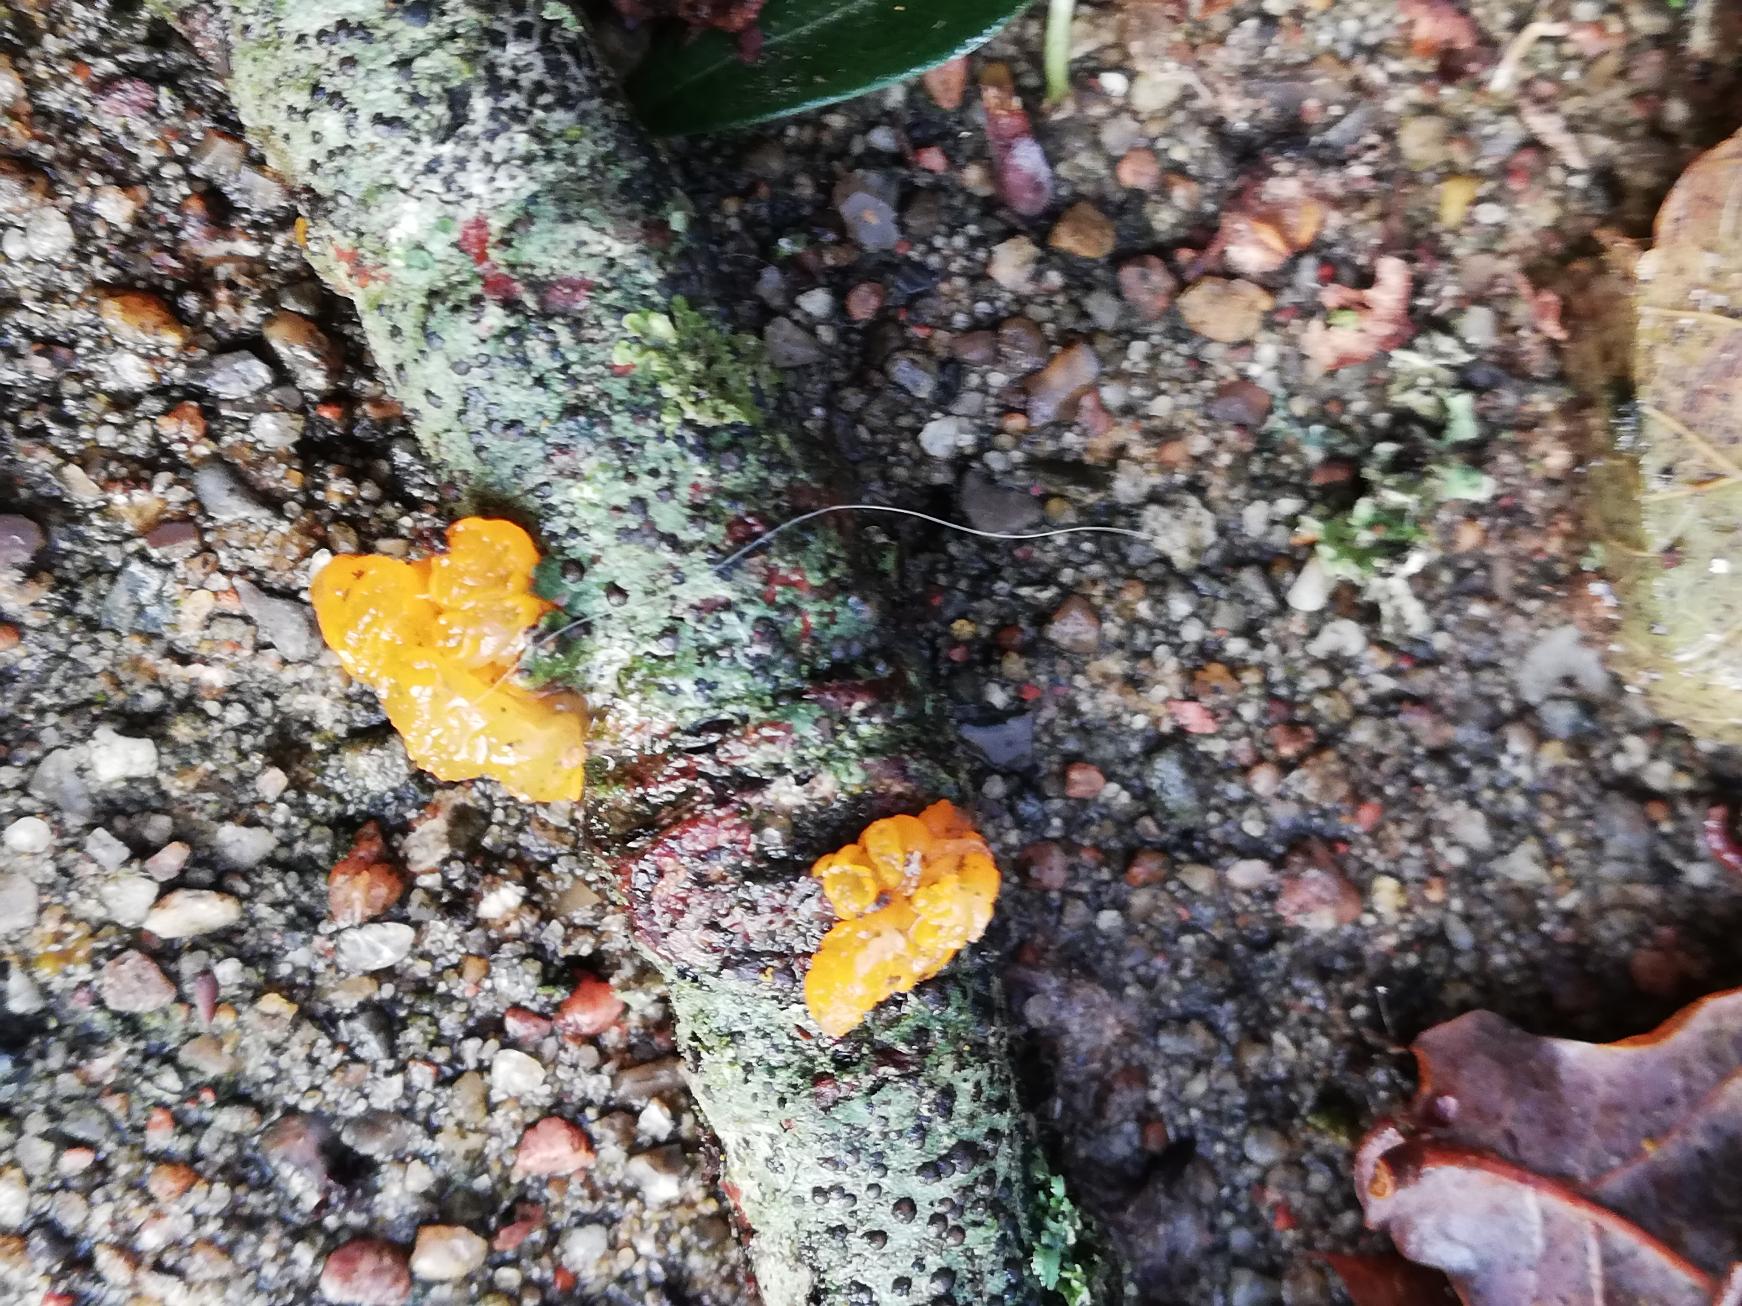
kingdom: Fungi
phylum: Basidiomycota
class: Tremellomycetes
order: Tremellales
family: Tremellaceae
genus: Tremella
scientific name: Tremella mesenterica
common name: Gul bævresvamp
